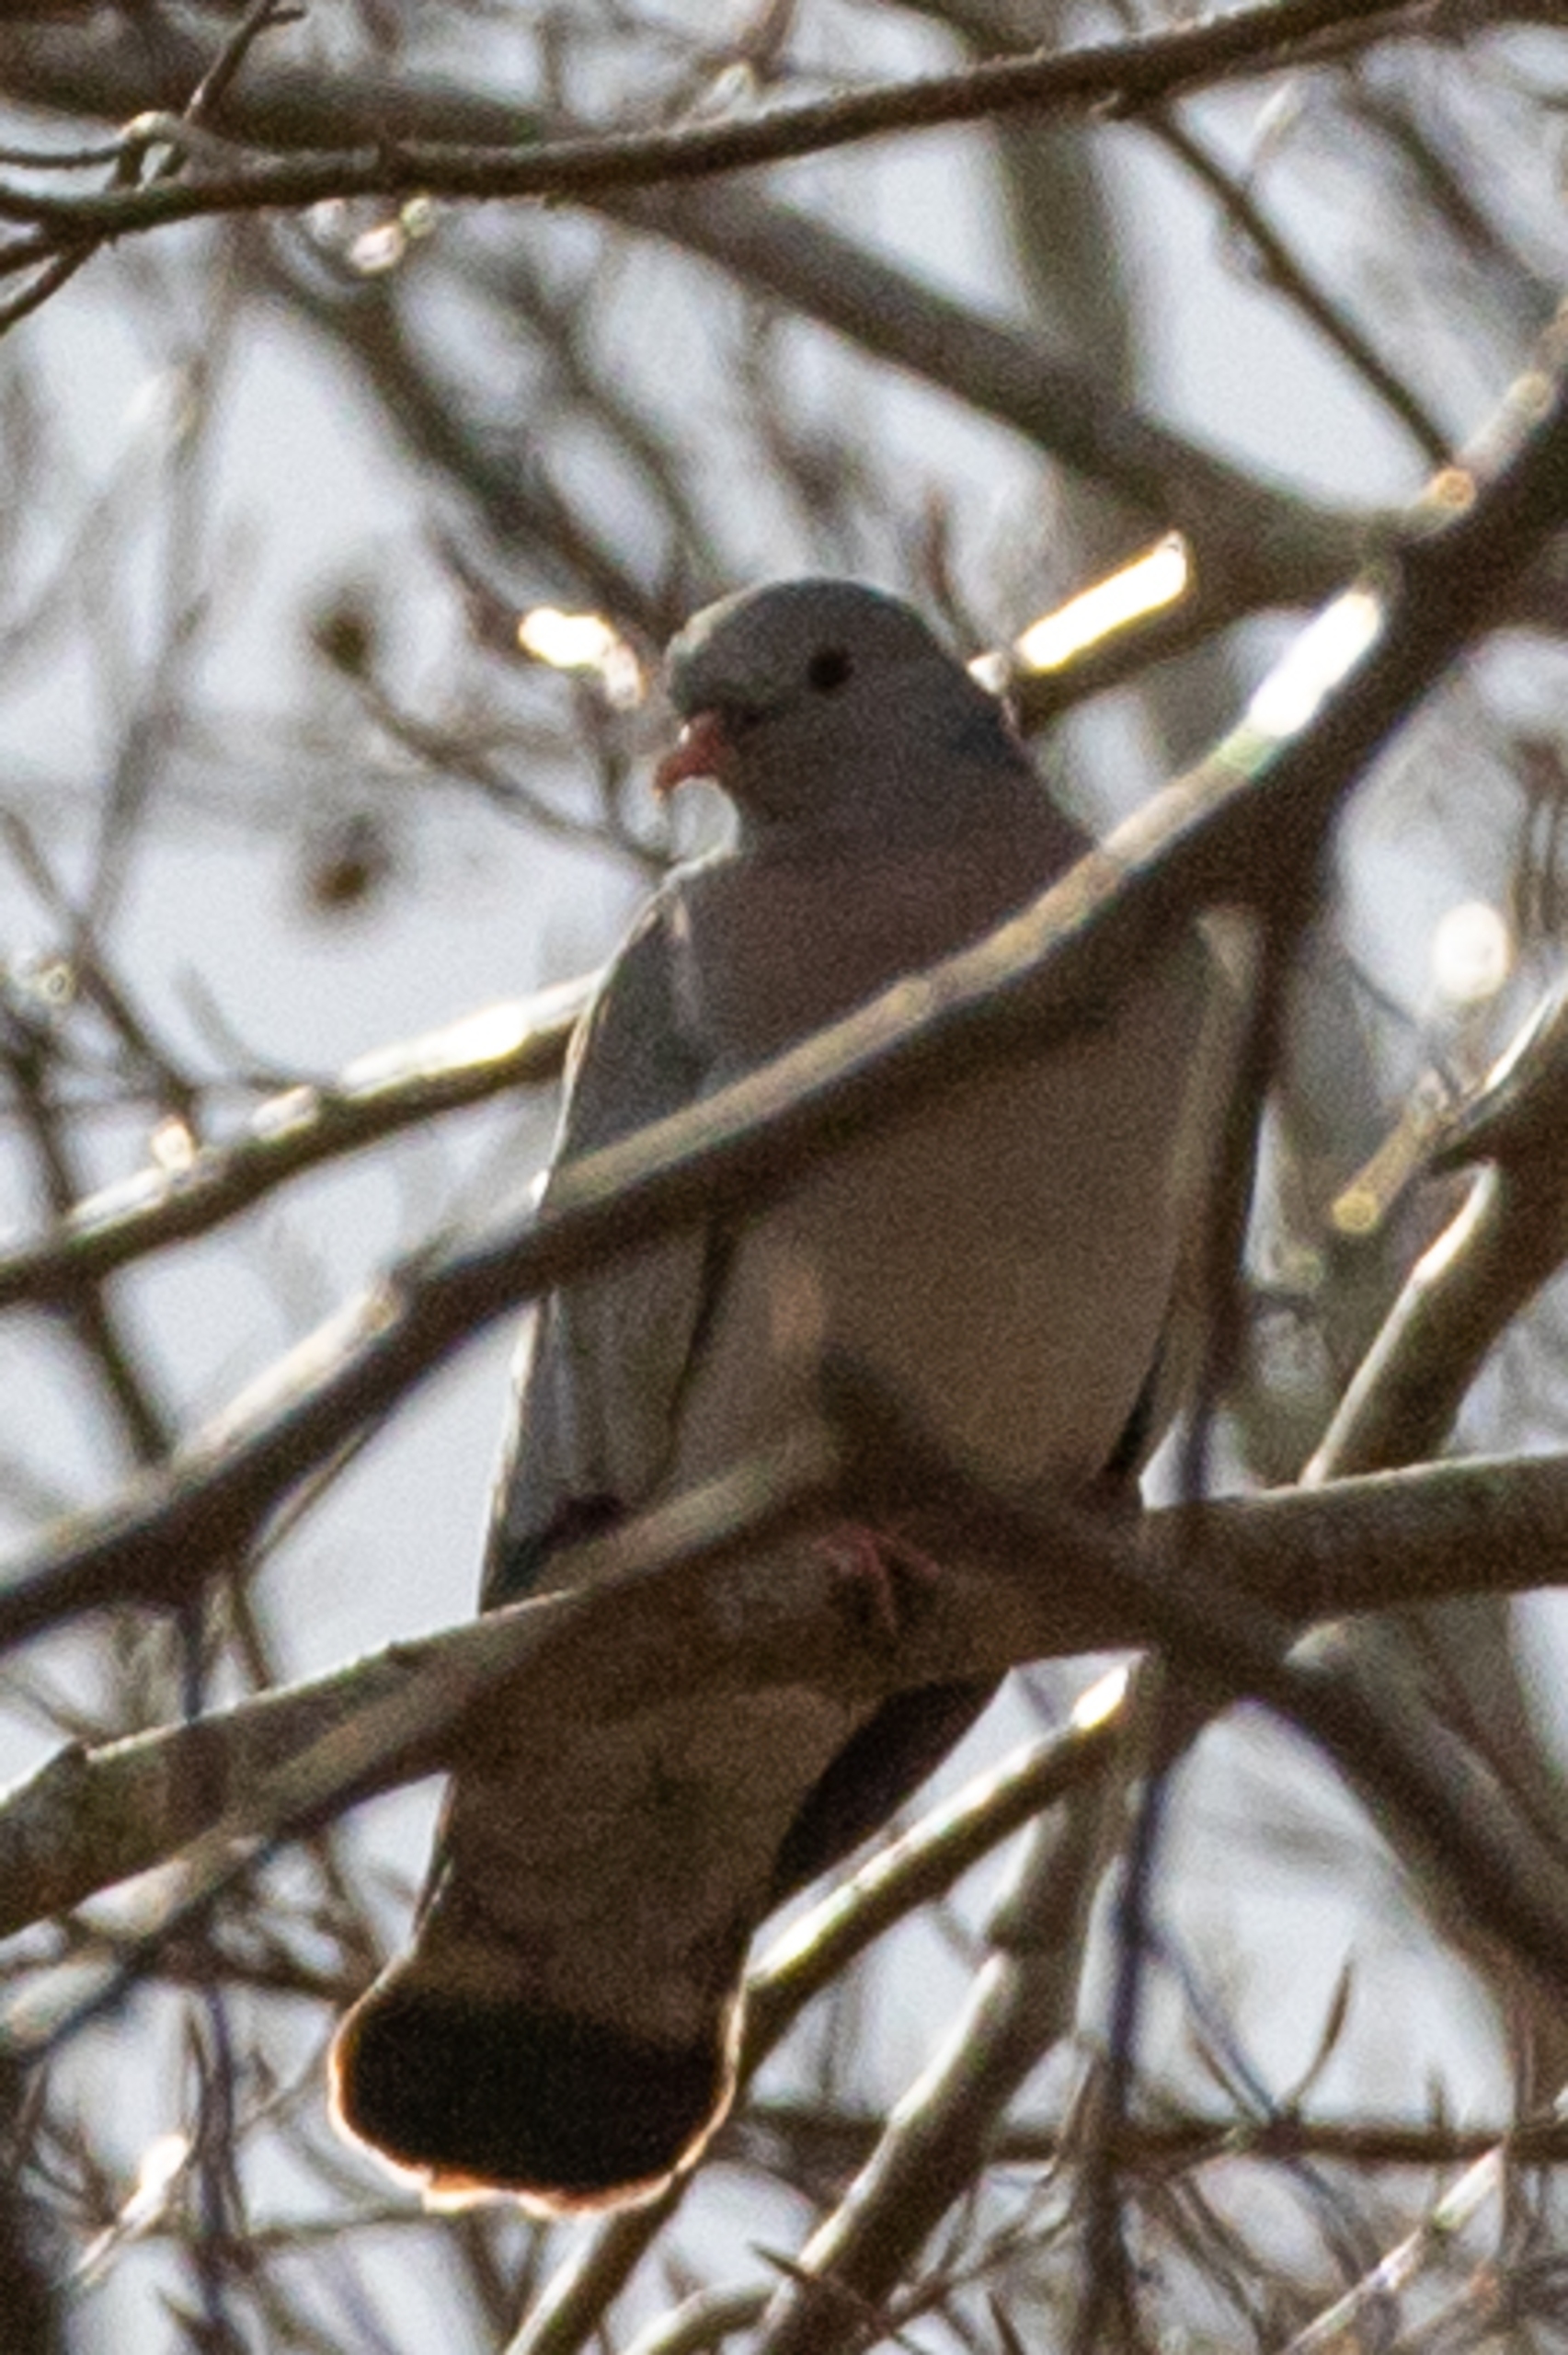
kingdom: Animalia
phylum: Chordata
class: Aves
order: Columbiformes
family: Columbidae
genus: Columba
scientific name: Columba oenas
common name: Huldue
